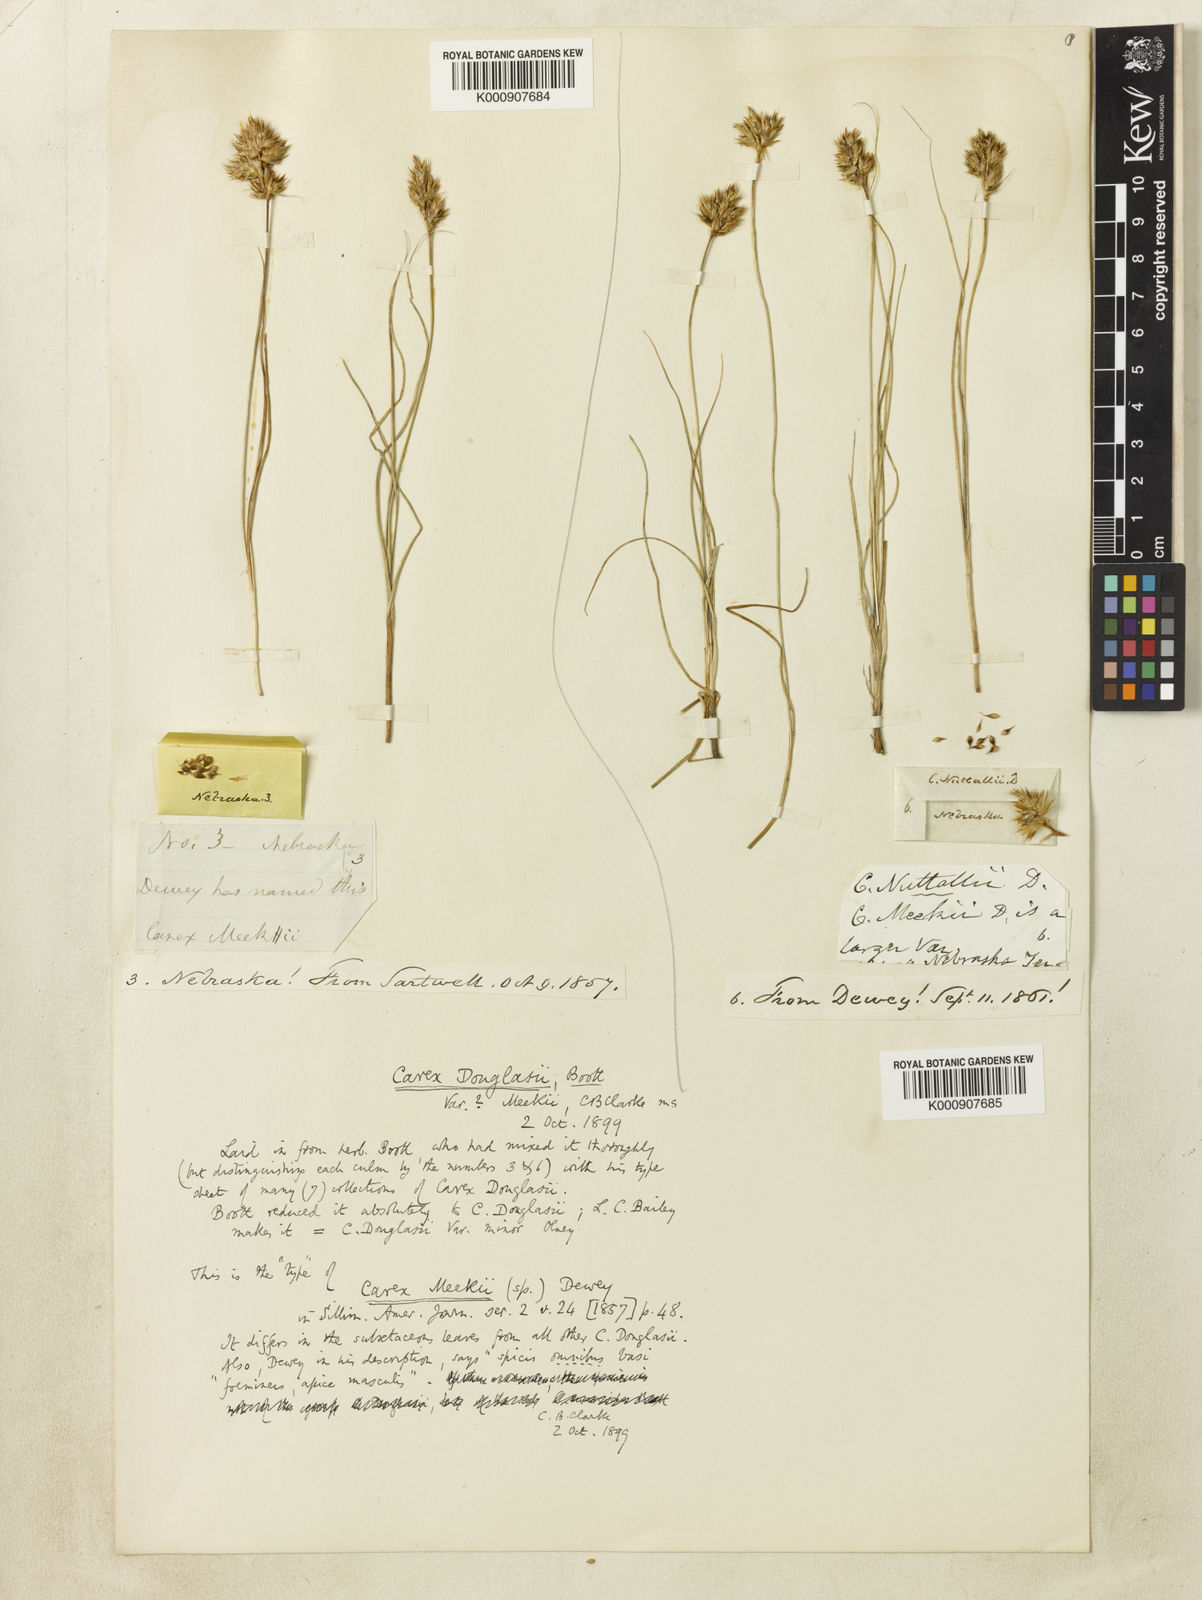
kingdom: Plantae
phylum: Tracheophyta
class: Liliopsida
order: Poales
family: Cyperaceae
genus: Carex
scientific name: Carex douglasii
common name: Douglas' sedge
